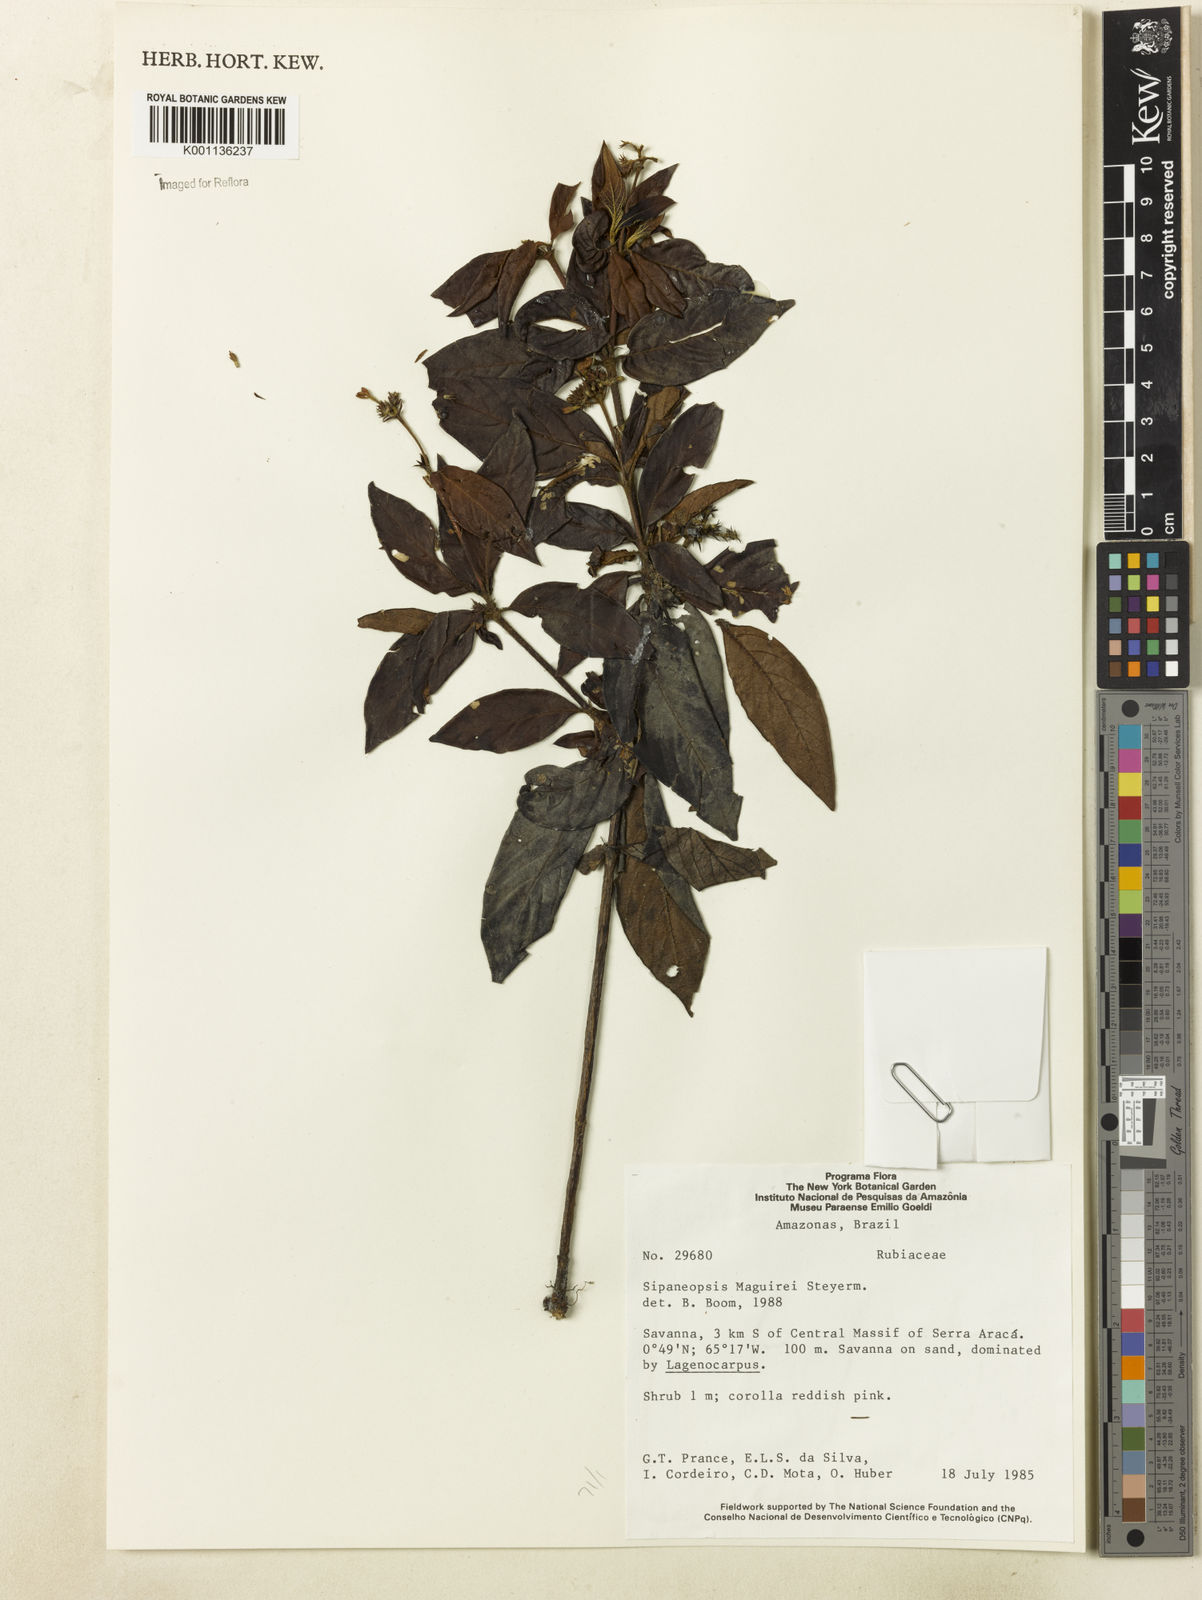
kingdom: Plantae
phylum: Tracheophyta
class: Magnoliopsida
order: Gentianales
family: Rubiaceae
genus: Sipaneopsis
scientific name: Sipaneopsis maguirei
